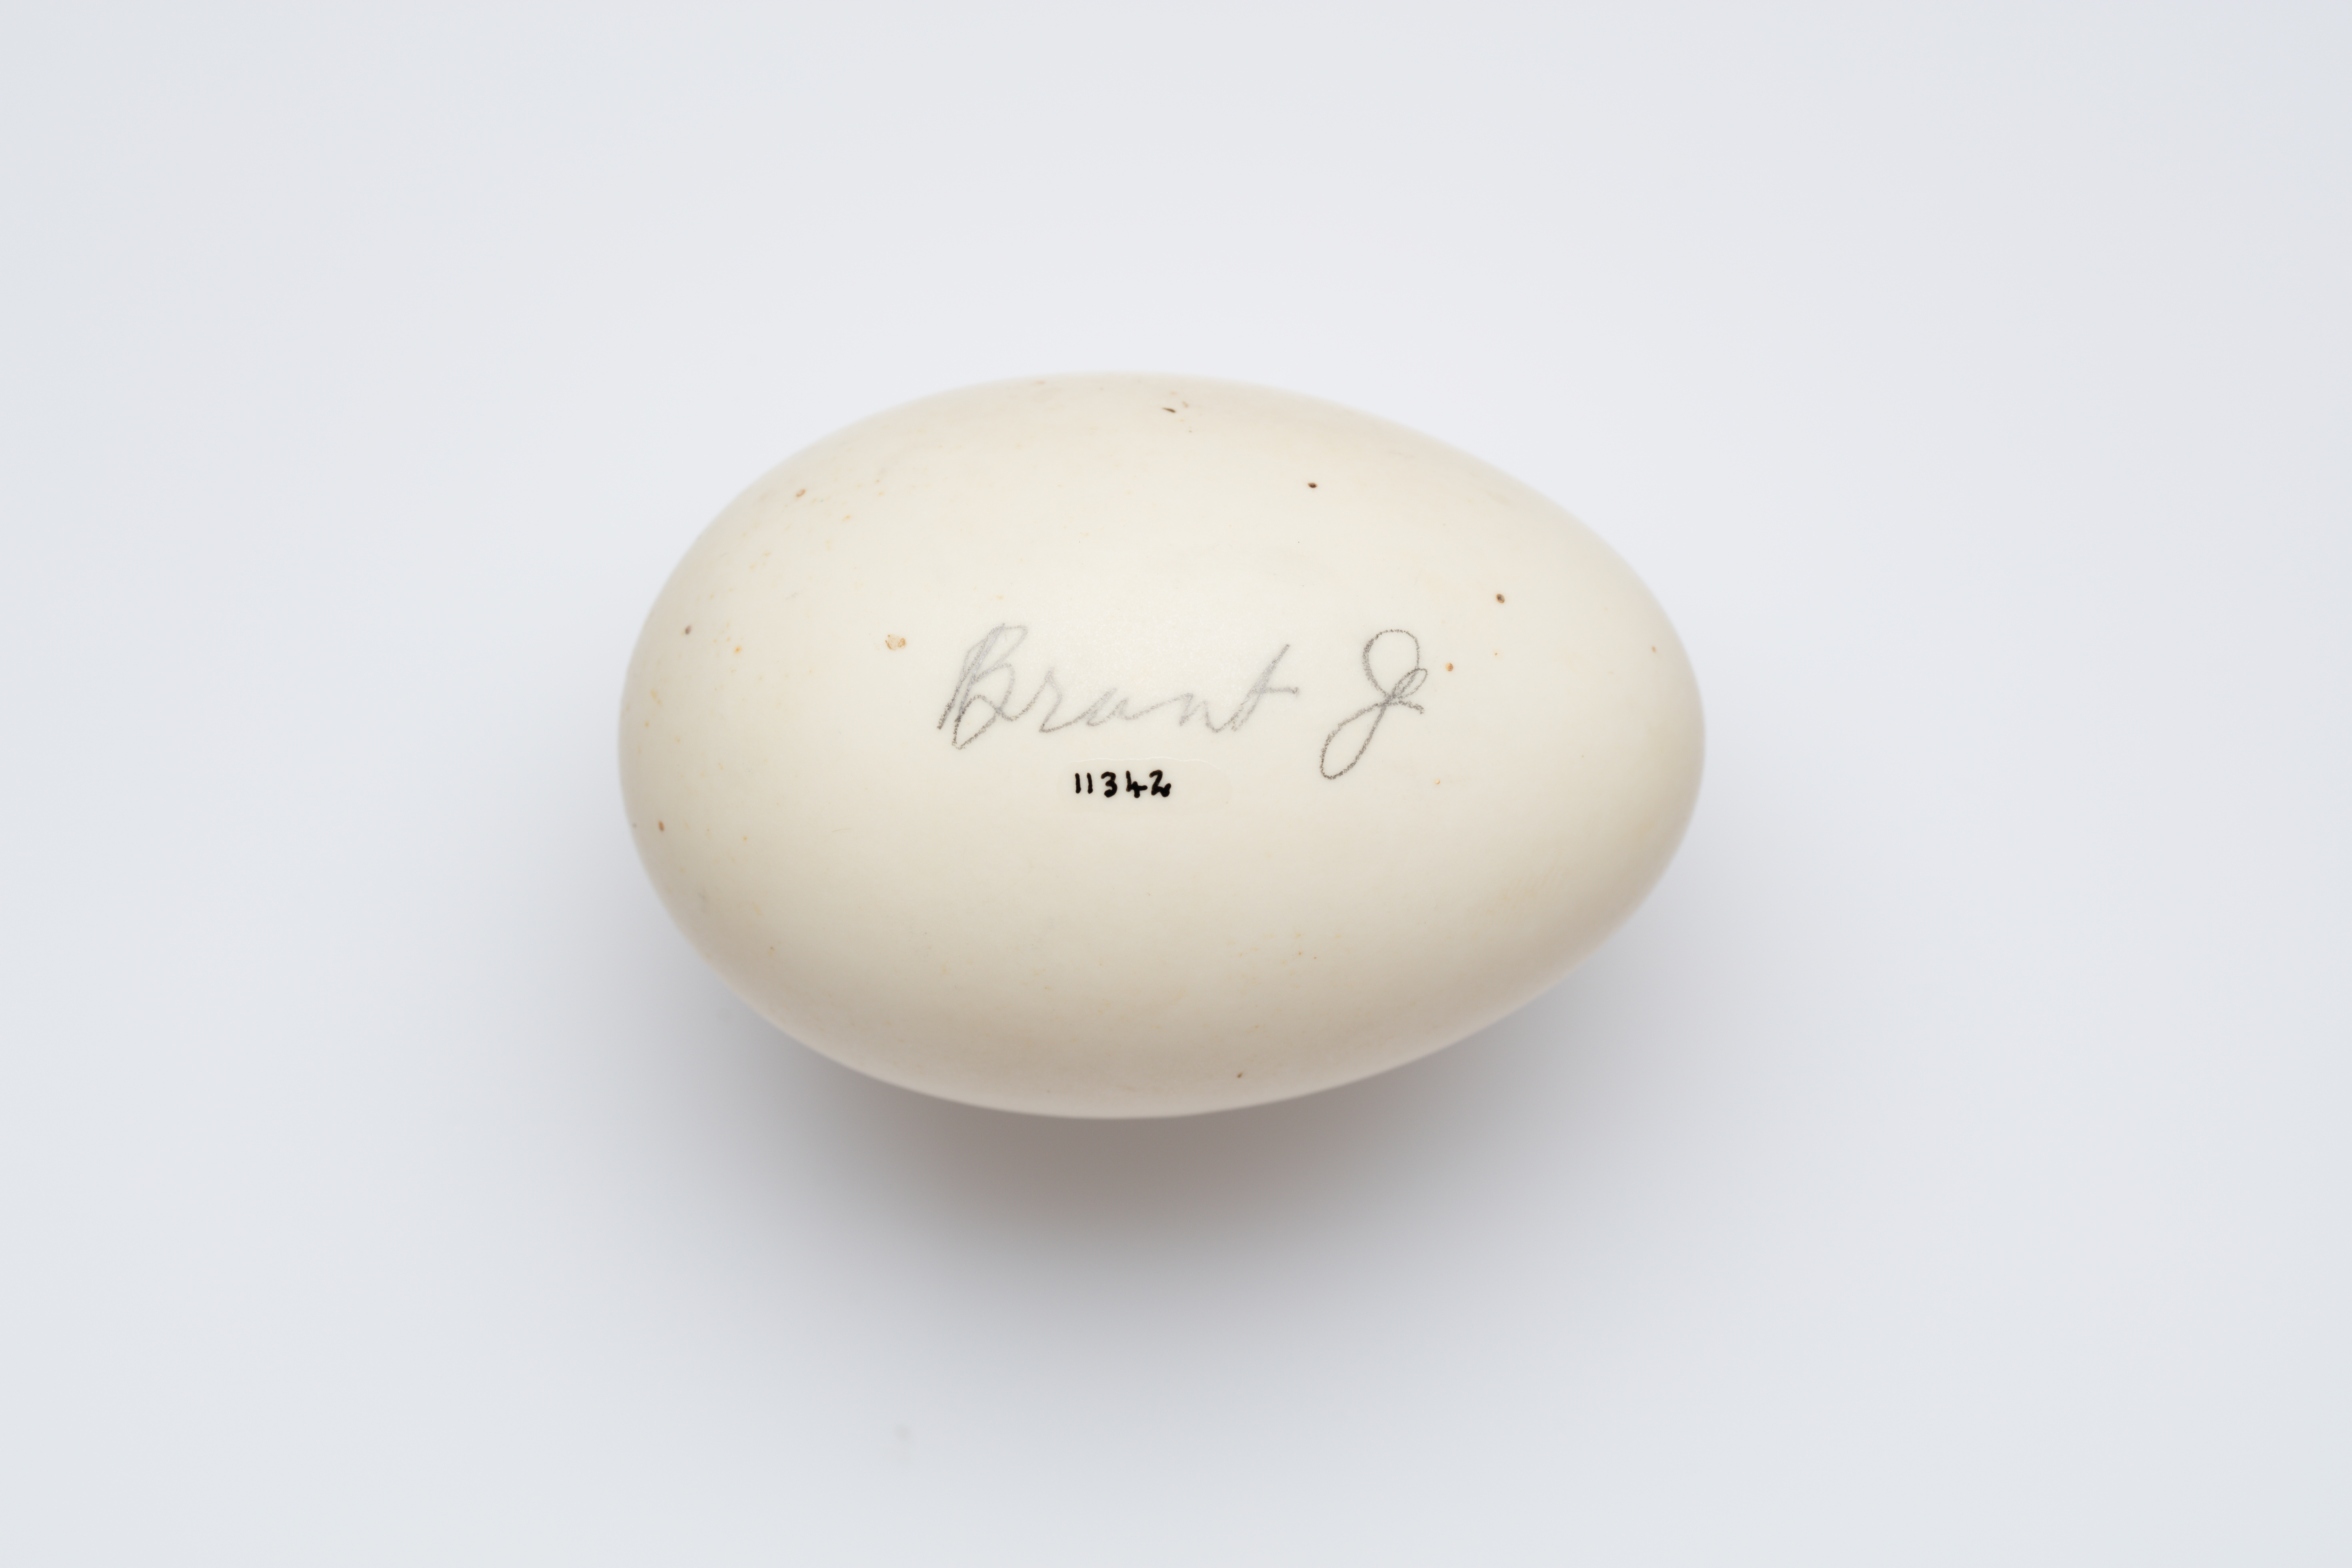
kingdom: Animalia
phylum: Chordata
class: Aves
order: Anseriformes
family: Anatidae
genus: Branta
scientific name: Branta bernicla
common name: Brant goose
